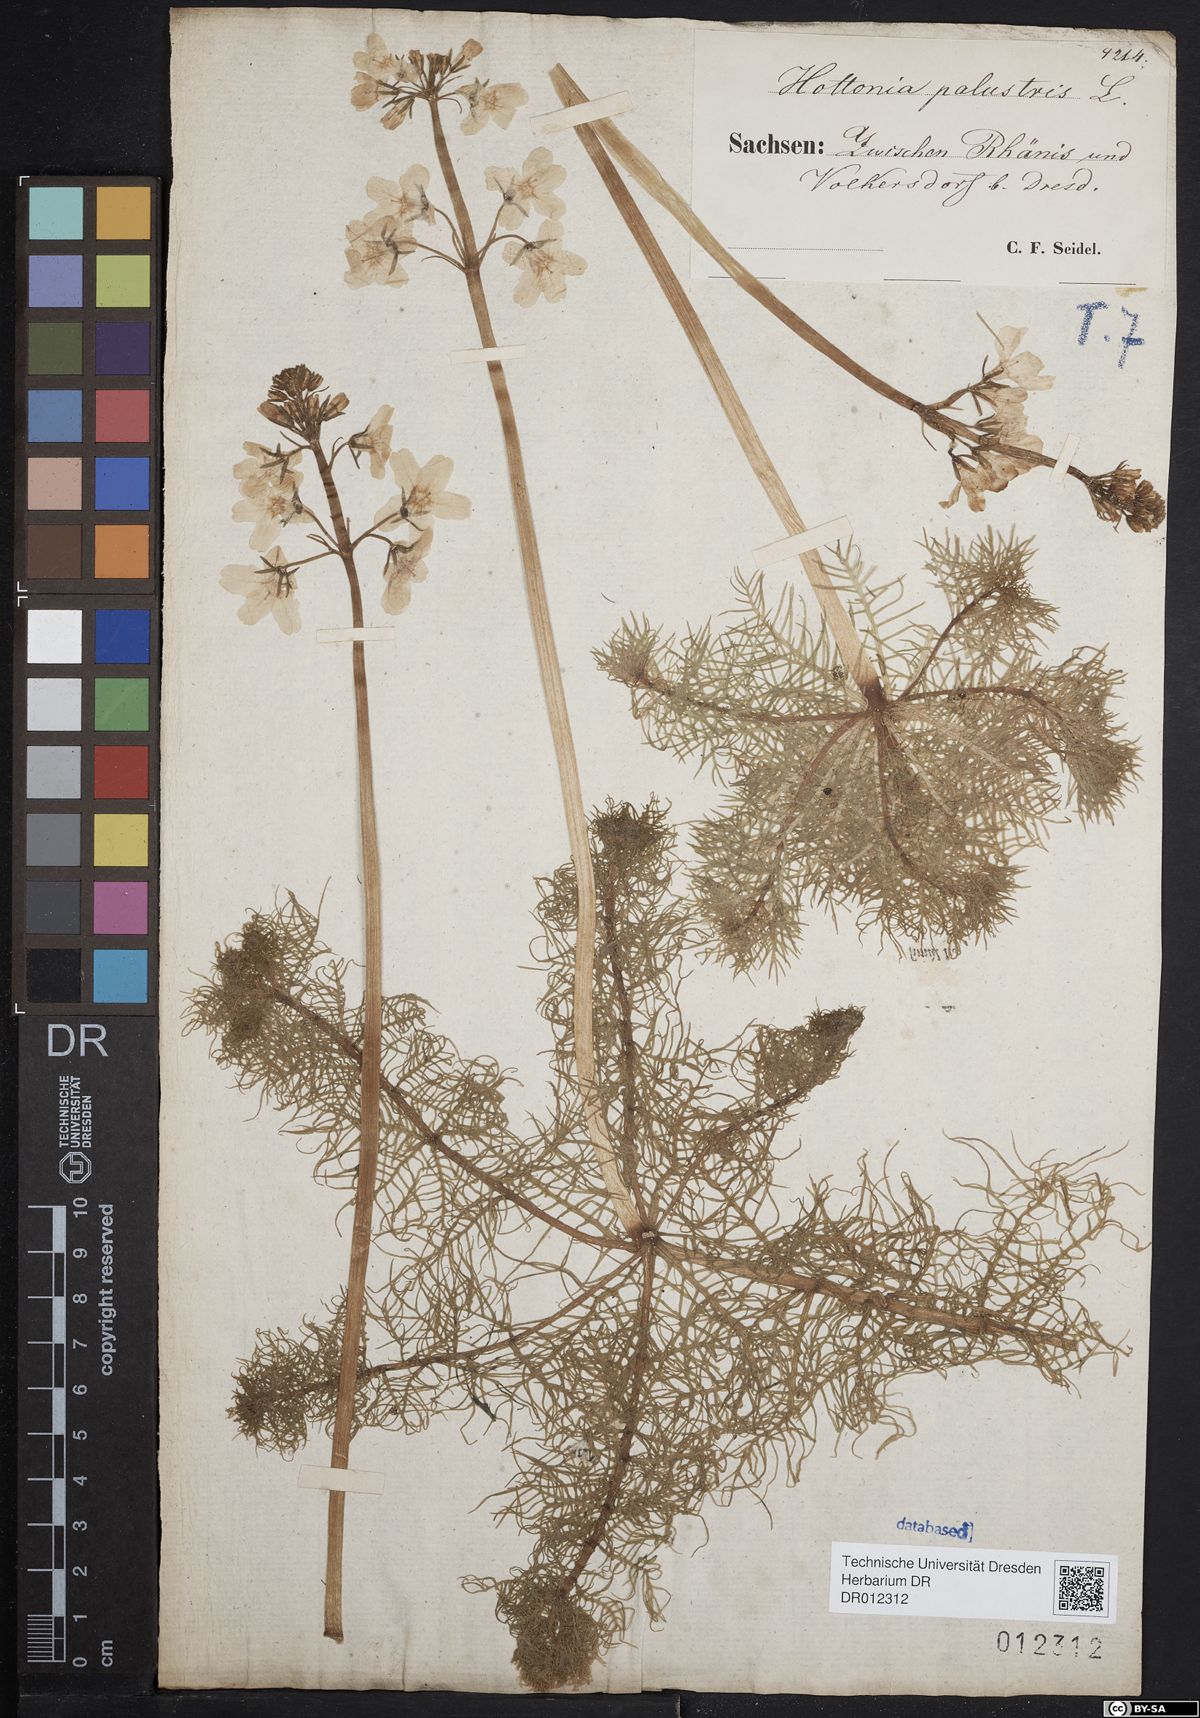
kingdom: Plantae
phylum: Tracheophyta
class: Magnoliopsida
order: Ericales
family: Primulaceae
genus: Hottonia
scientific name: Hottonia palustris
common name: Water-violet
